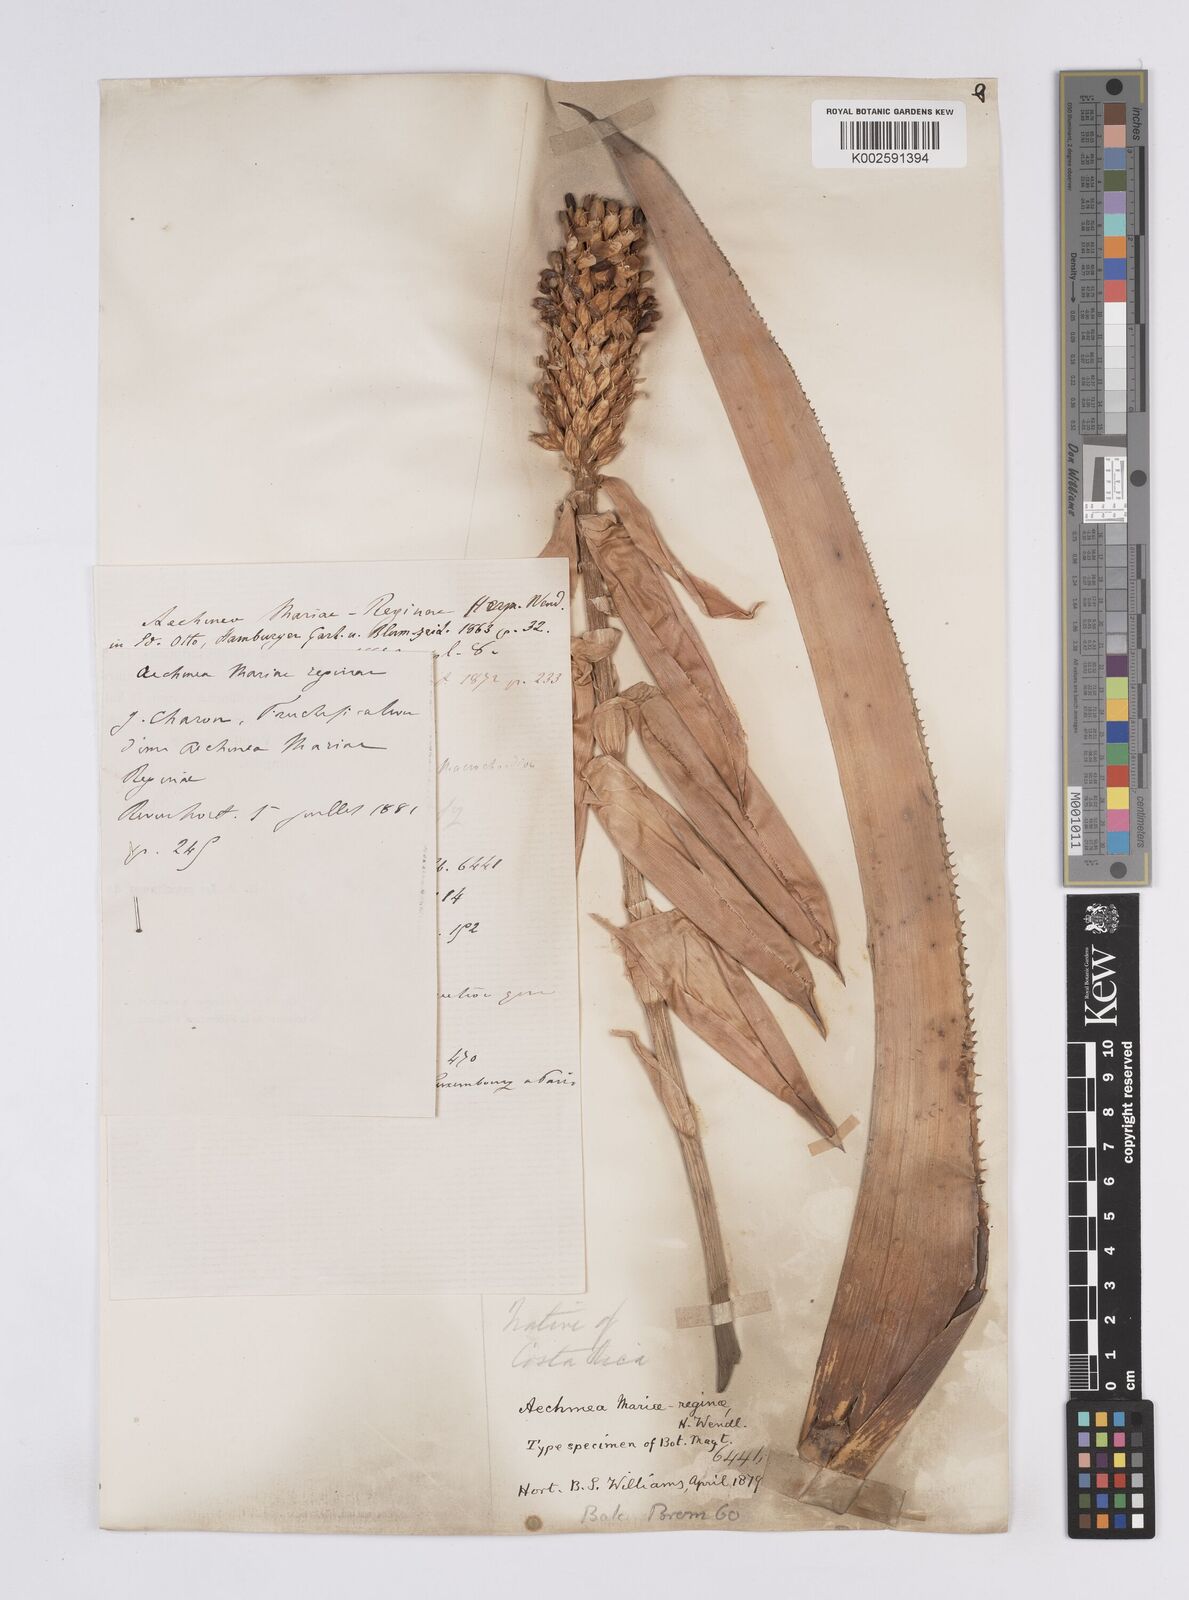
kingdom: Plantae
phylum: Tracheophyta
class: Liliopsida
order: Poales
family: Bromeliaceae
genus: Aechmea
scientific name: Aechmea mariae-reginae
